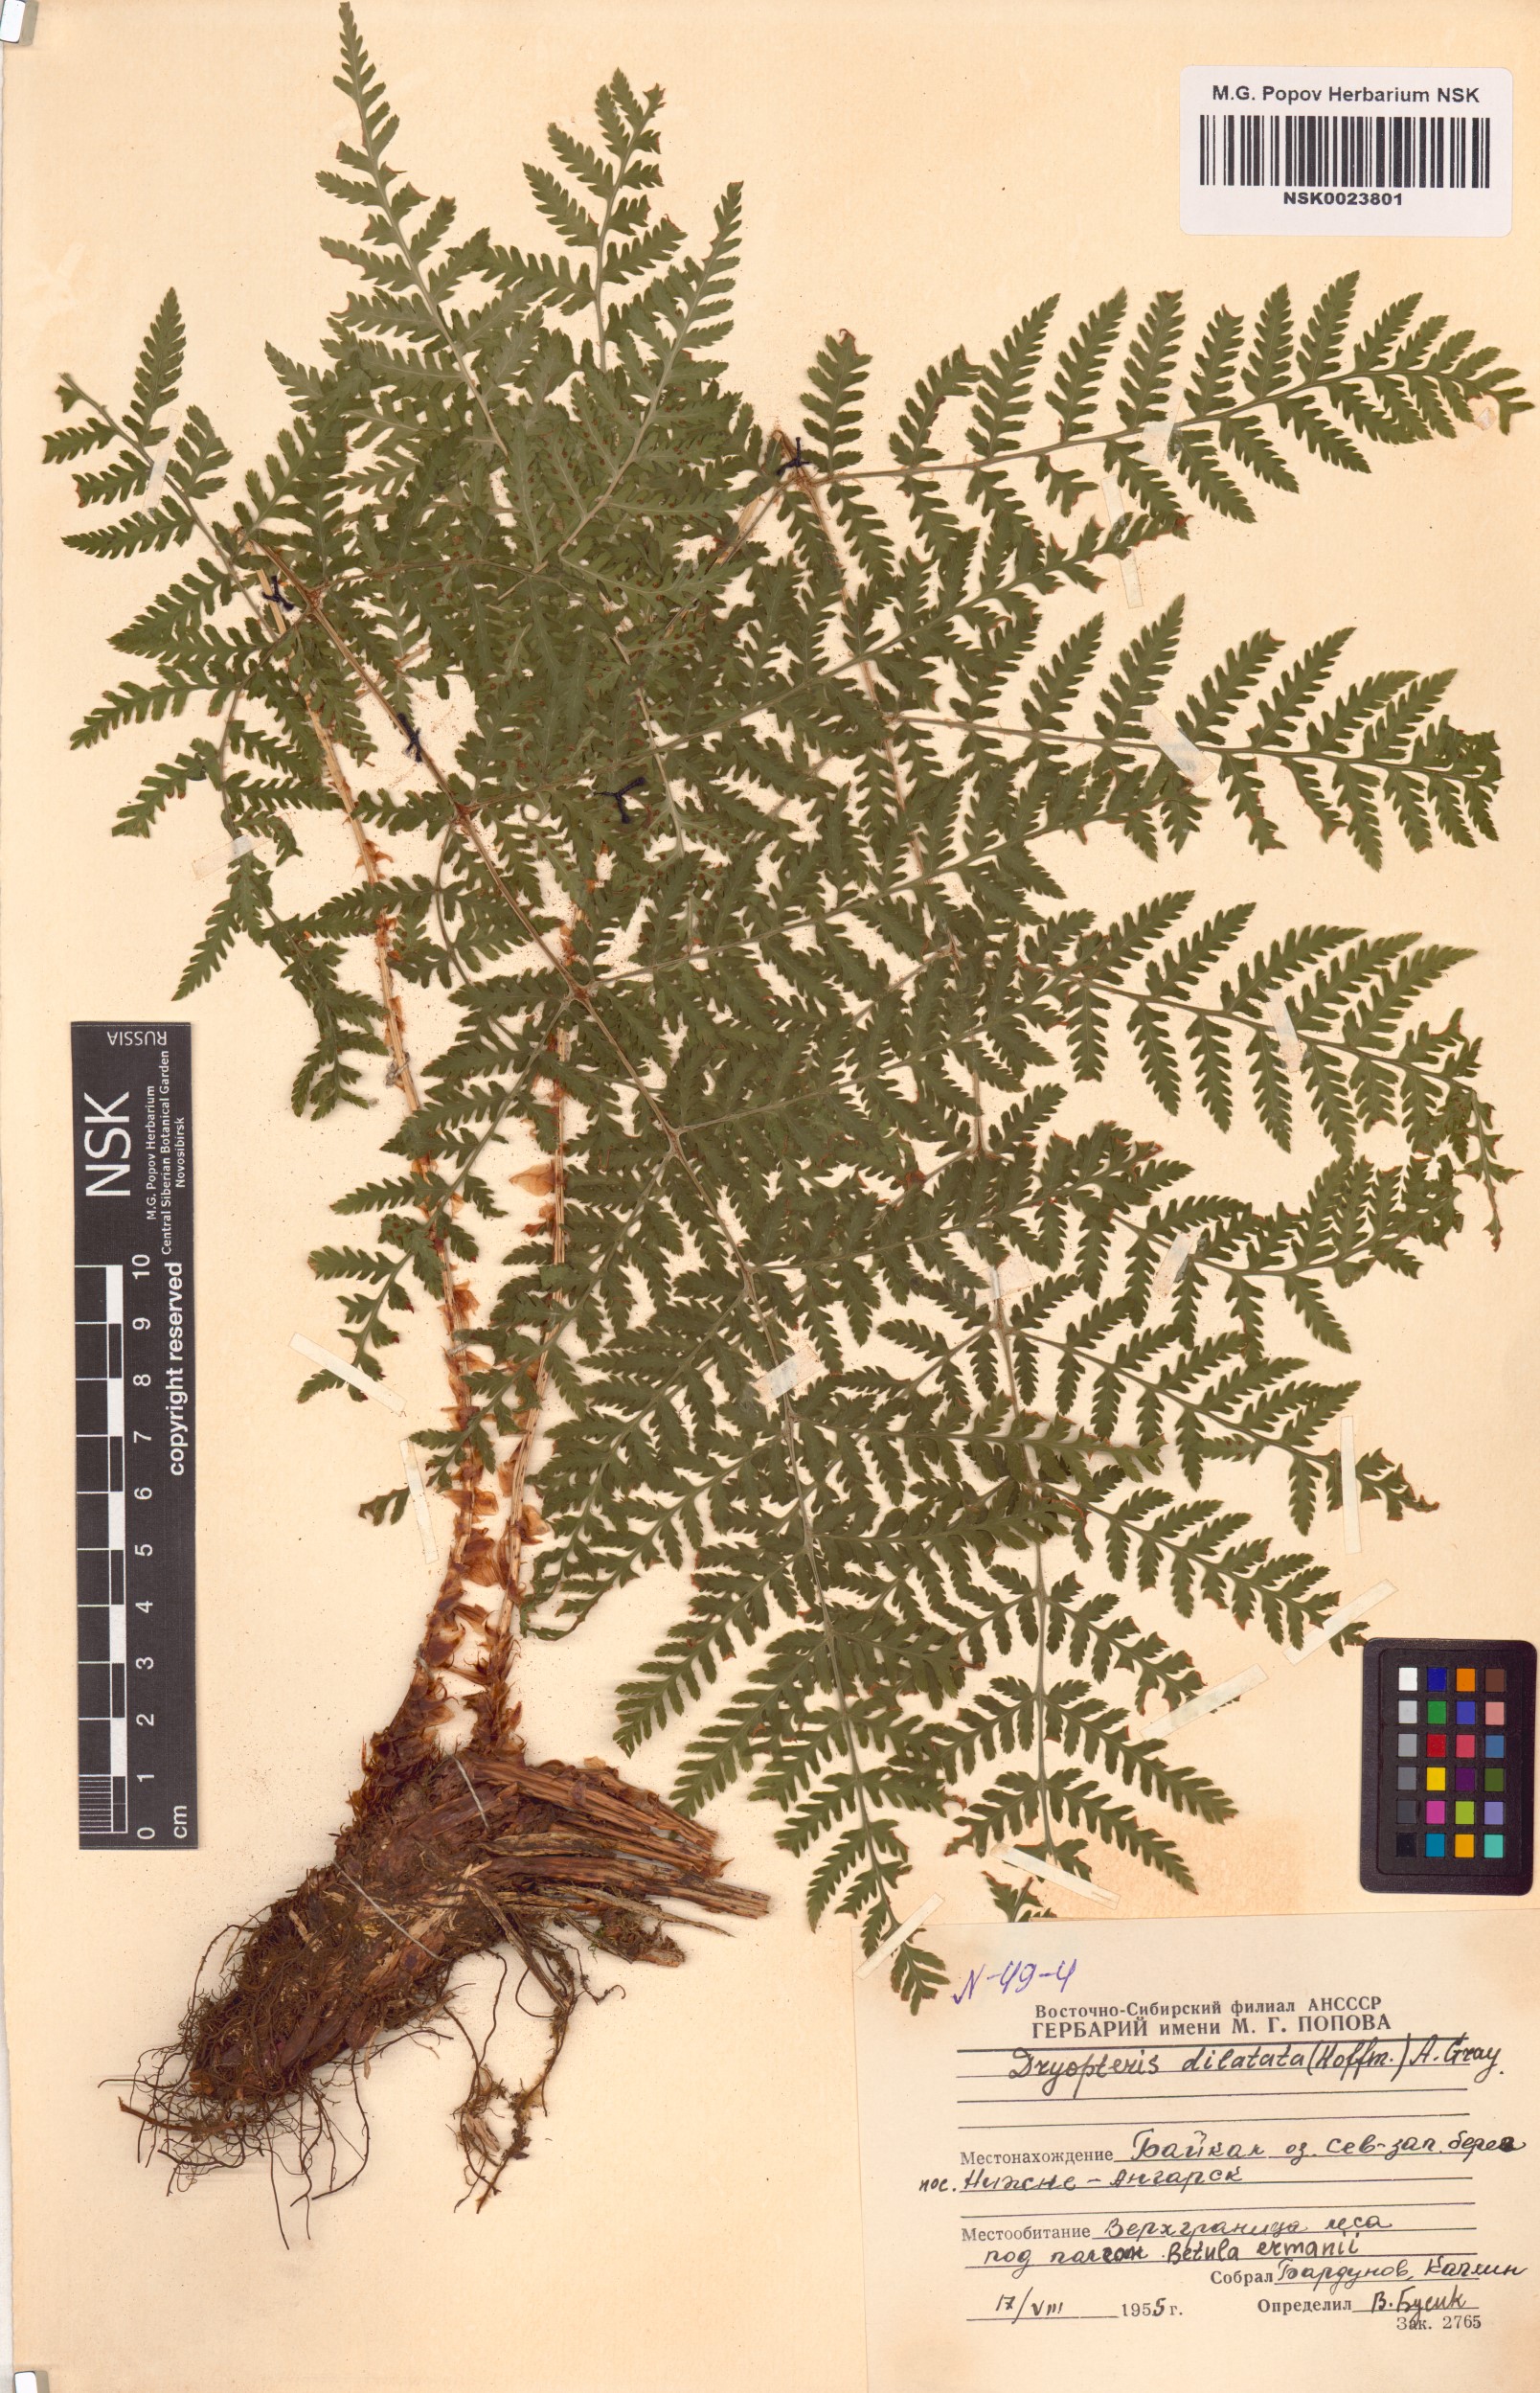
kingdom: Plantae
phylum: Tracheophyta
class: Polypodiopsida
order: Polypodiales
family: Dryopteridaceae
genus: Dryopteris
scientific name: Dryopteris dilatata
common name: Broad buckler-fern
